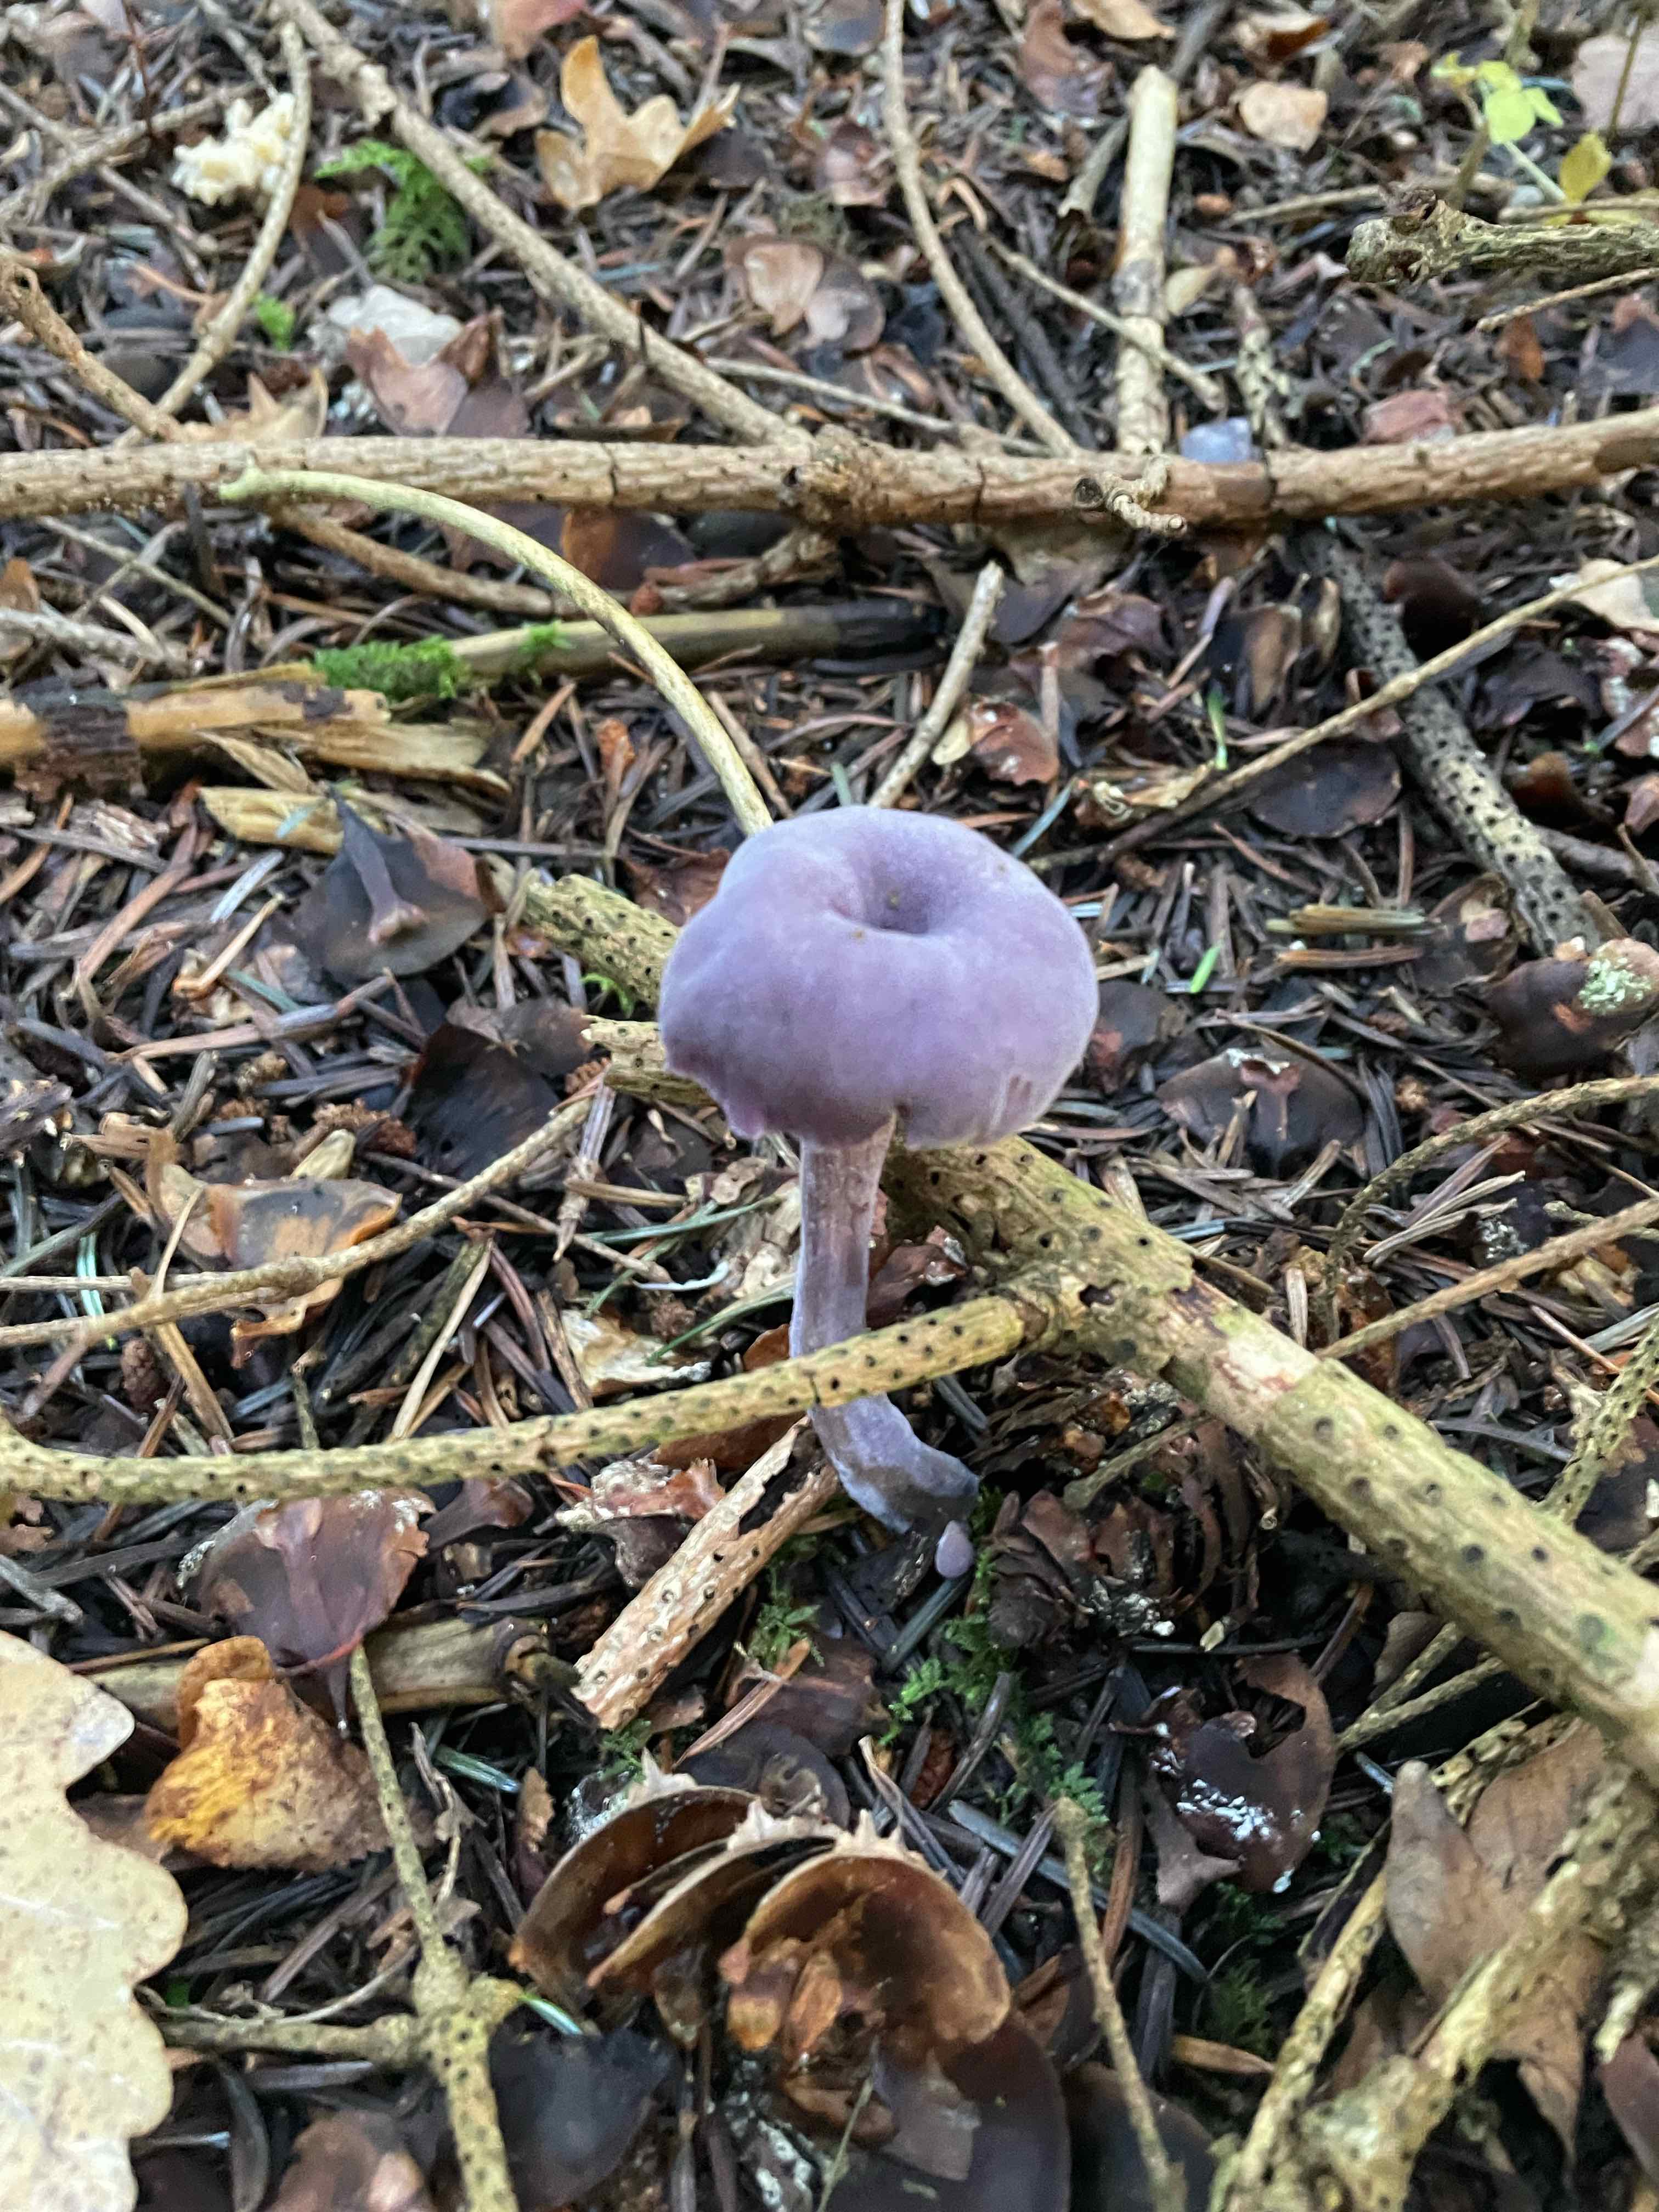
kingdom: Fungi
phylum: Basidiomycota
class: Agaricomycetes
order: Agaricales
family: Hydnangiaceae
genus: Laccaria
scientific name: Laccaria amethystina
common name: violet ametysthat
